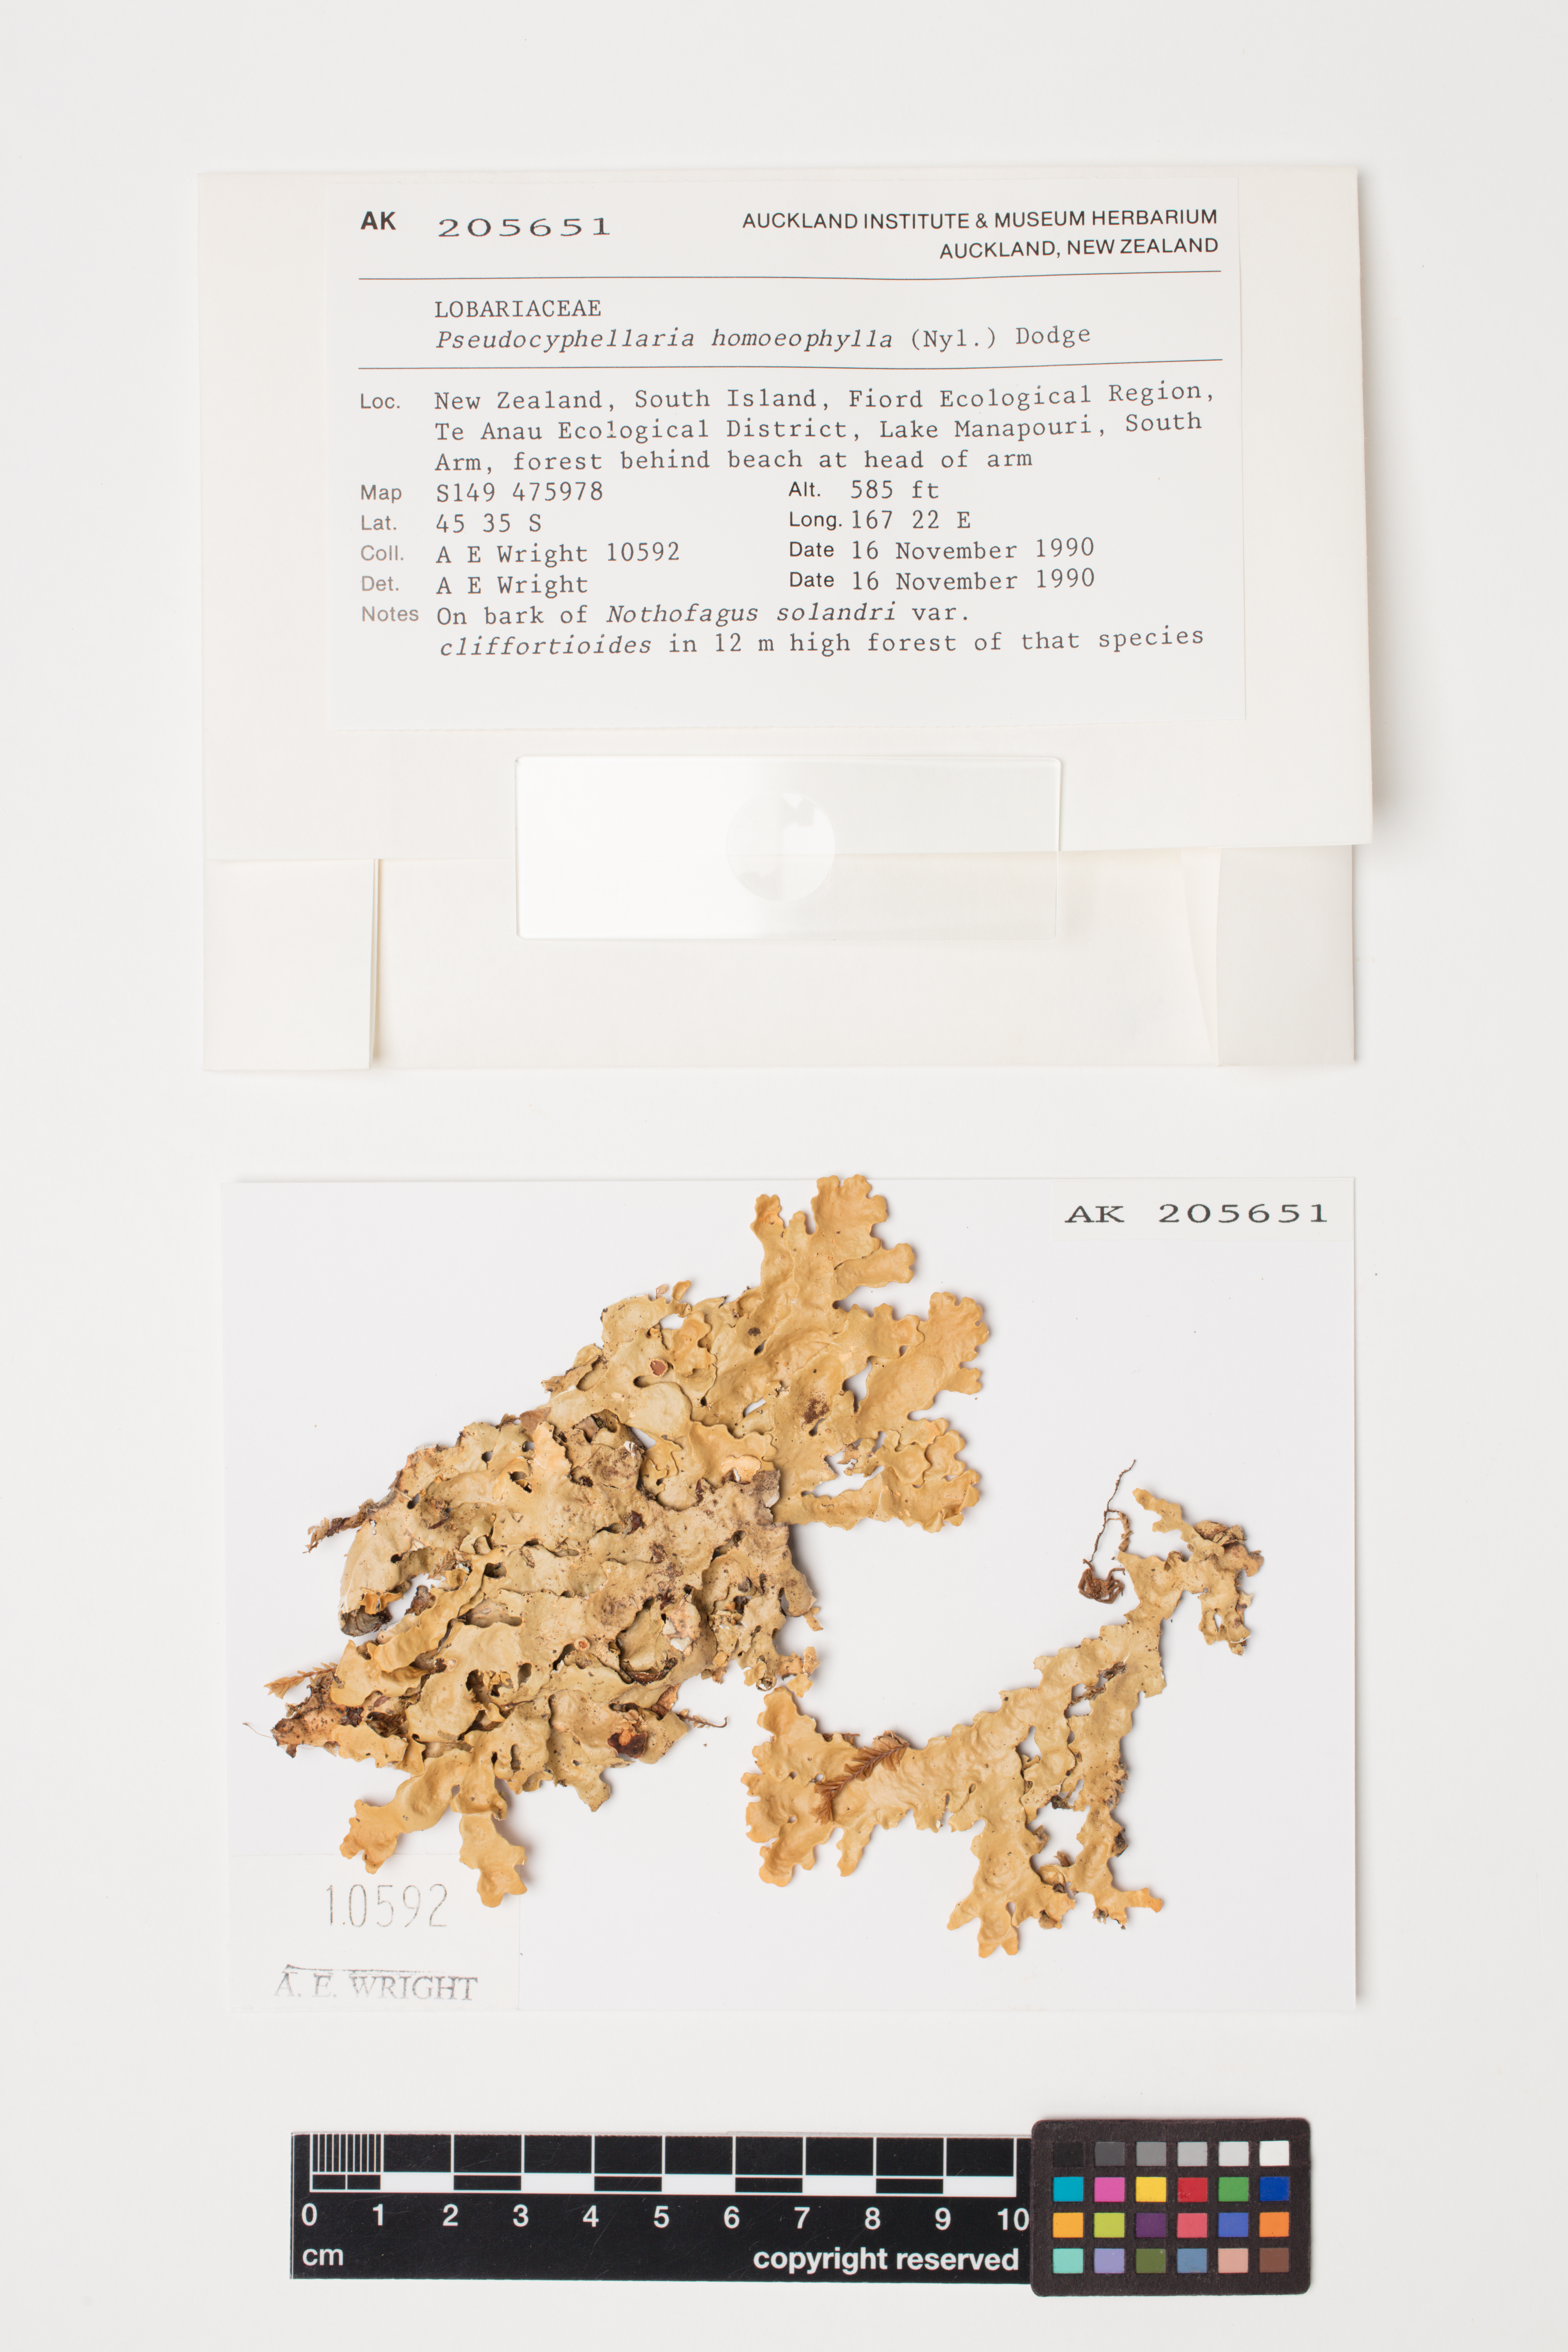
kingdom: Fungi
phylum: Ascomycota
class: Lecanoromycetes
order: Peltigerales
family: Lobariaceae
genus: Pseudocyphellaria
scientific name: Pseudocyphellaria homeophylla
